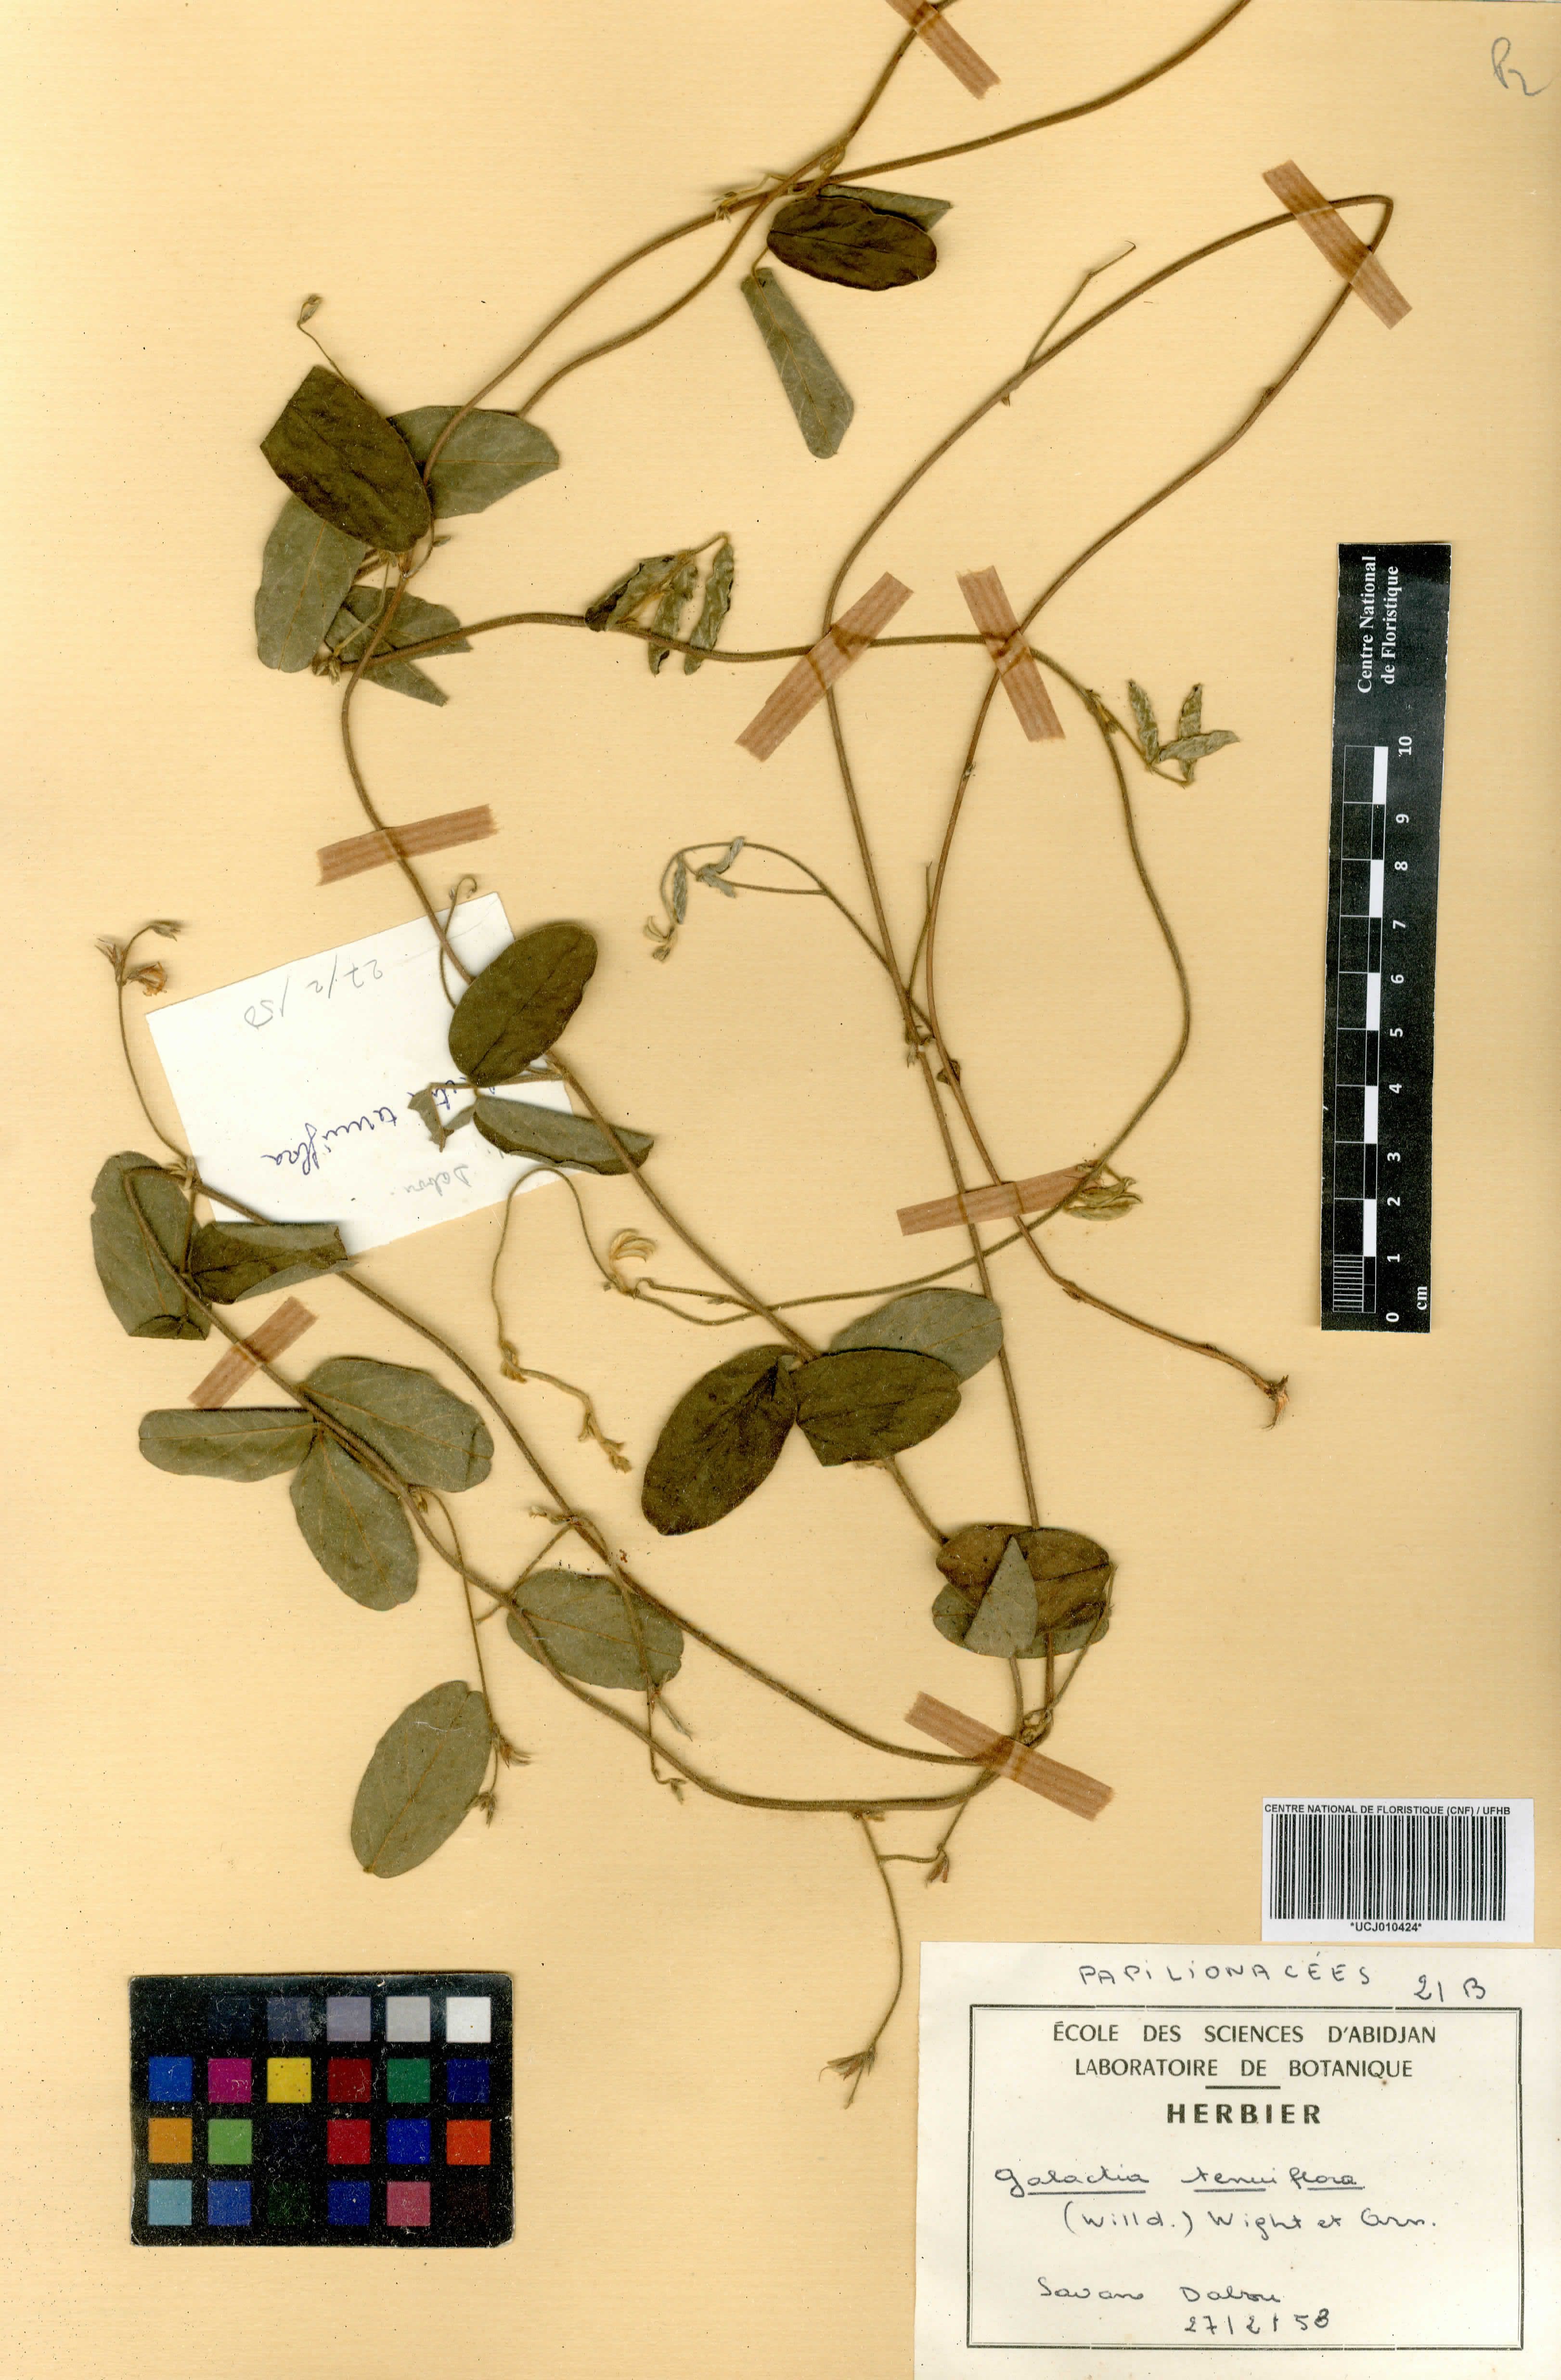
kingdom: Plantae
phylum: Tracheophyta
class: Magnoliopsida
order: Fabales
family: Fabaceae
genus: Galactia
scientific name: Galactia striata
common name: Florida hammock milkpea
